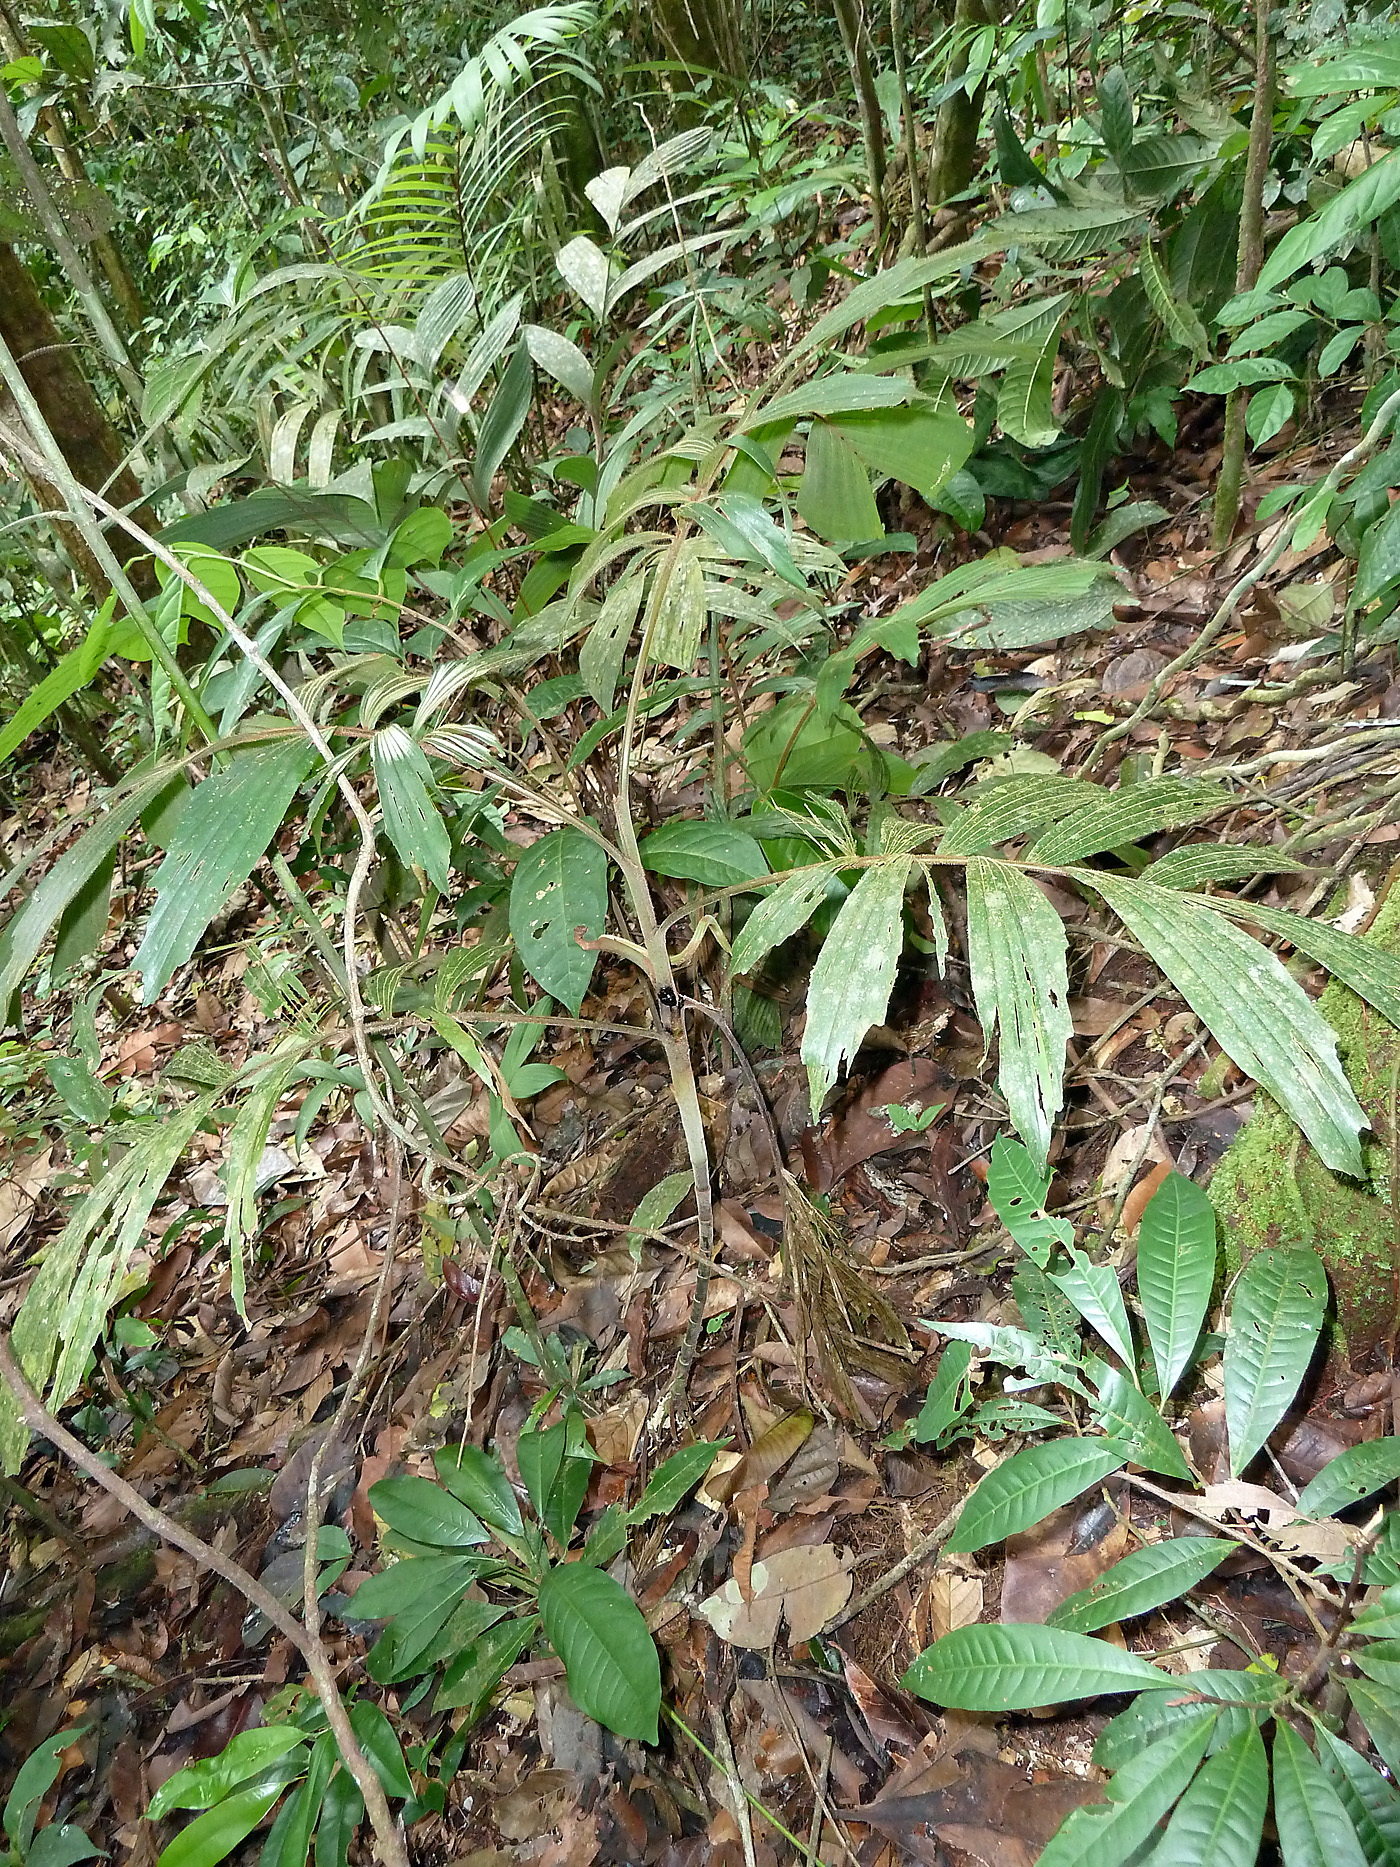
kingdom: Plantae
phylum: Tracheophyta
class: Liliopsida
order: Arecales
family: Arecaceae
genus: Iriartella
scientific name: Iriartella stenocarpa
